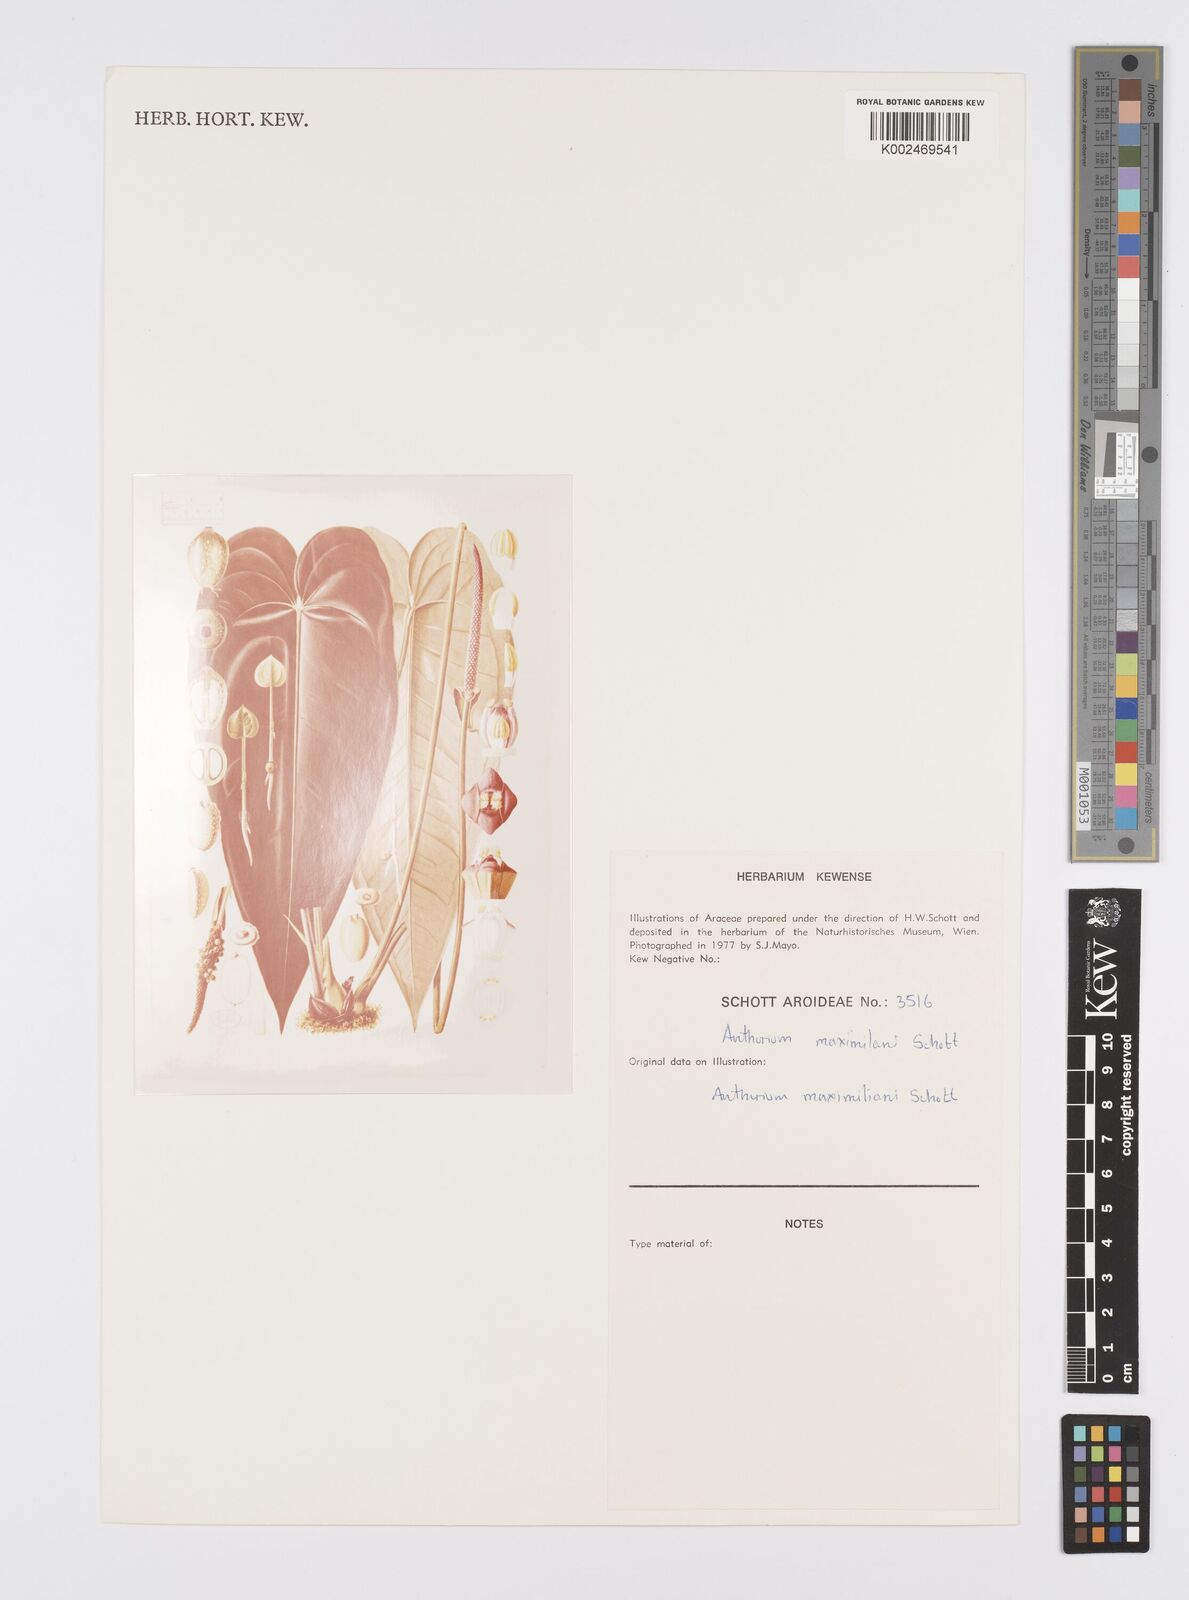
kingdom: Plantae
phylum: Tracheophyta
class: Liliopsida
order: Alismatales
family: Araceae
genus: Anthurium
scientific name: Anthurium augustinum
